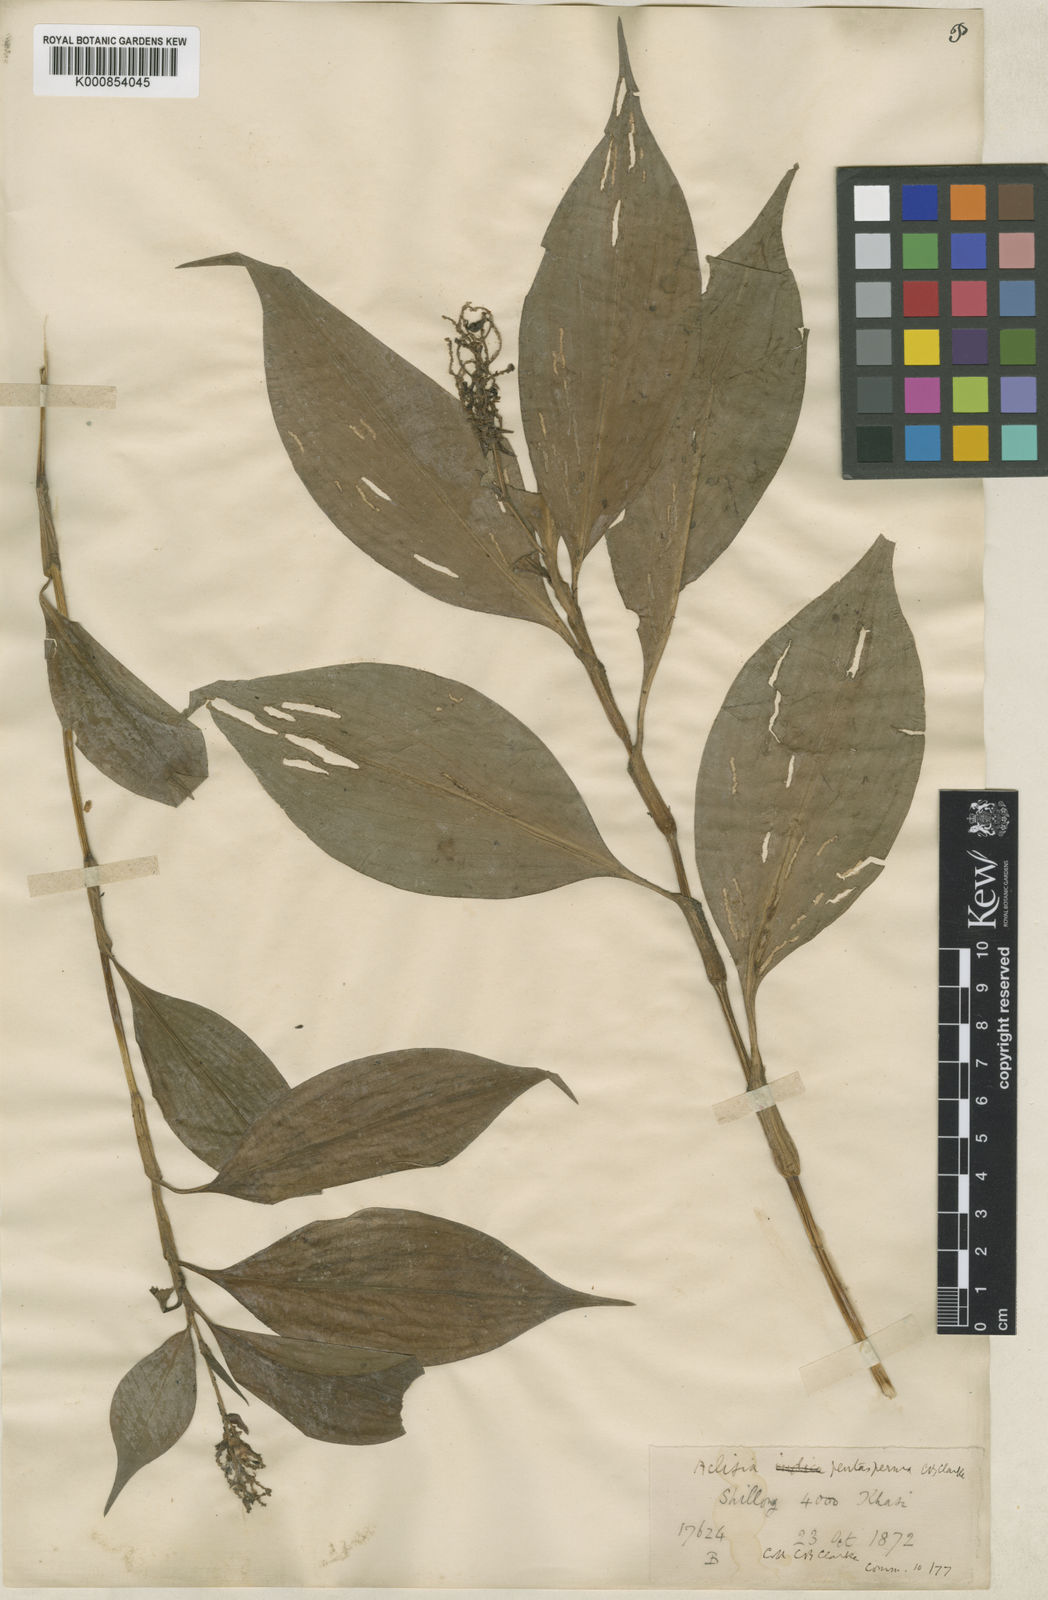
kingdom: Plantae
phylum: Tracheophyta
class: Liliopsida
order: Commelinales
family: Commelinaceae
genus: Pollia
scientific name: Pollia pentasperma
